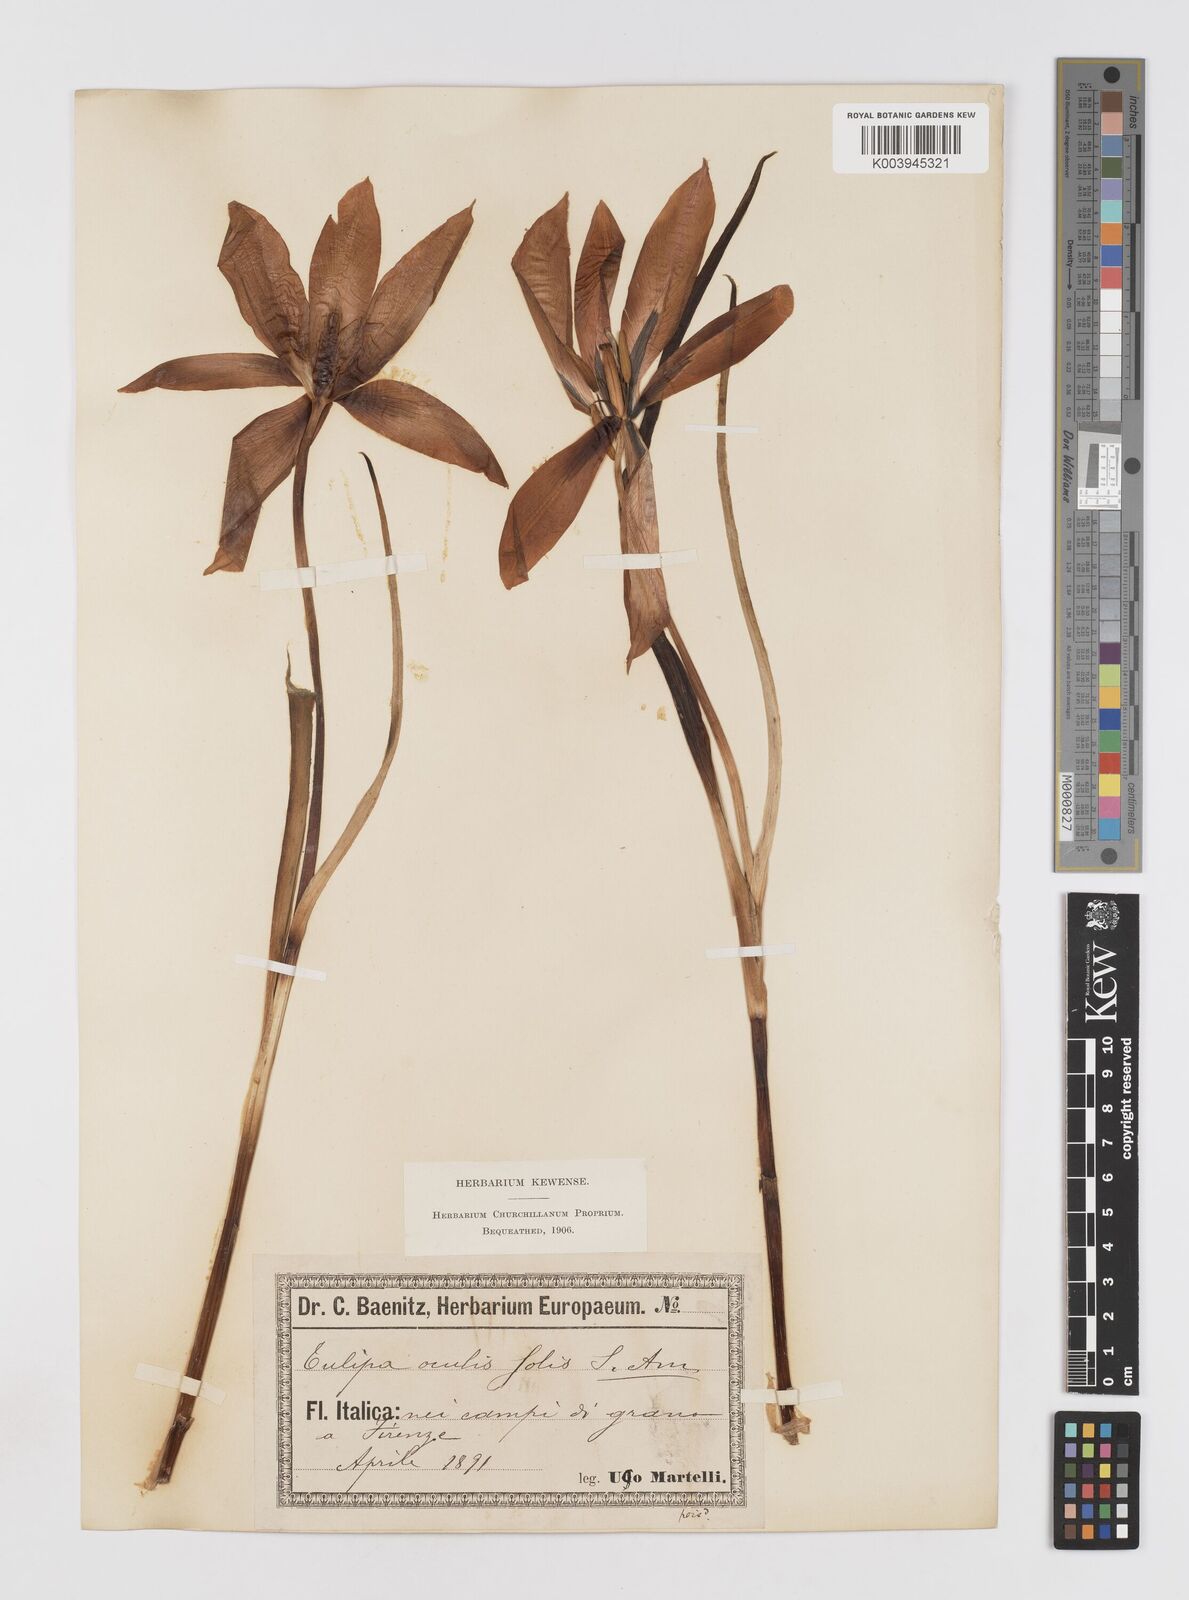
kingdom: Plantae
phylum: Tracheophyta
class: Liliopsida
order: Liliales
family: Liliaceae
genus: Tulipa
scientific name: Tulipa agenensis
